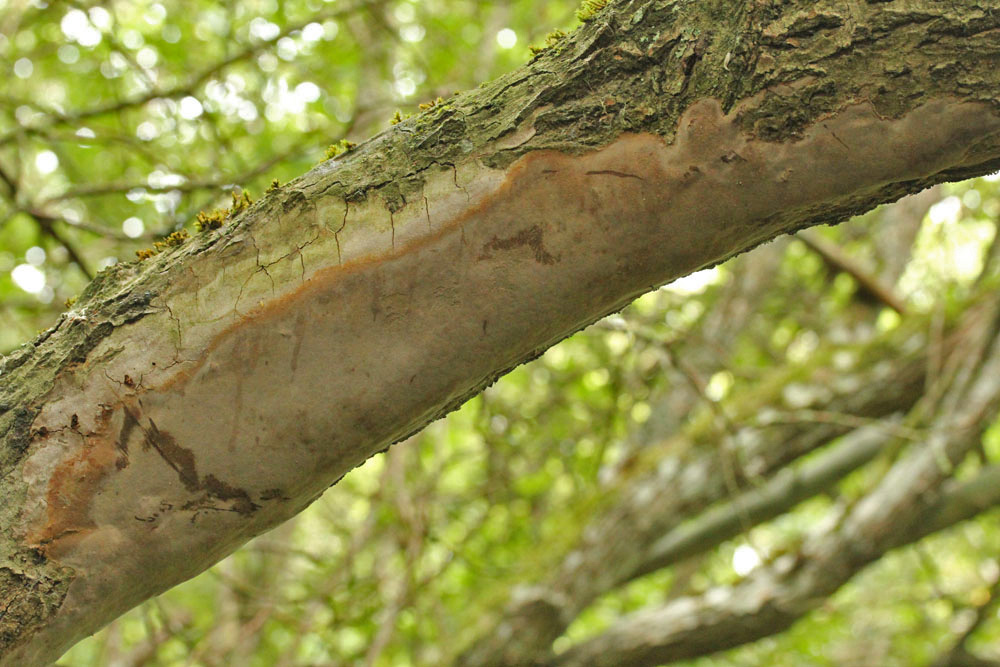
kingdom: Fungi
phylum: Basidiomycota
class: Agaricomycetes
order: Hymenochaetales
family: Hymenochaetaceae
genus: Fomitiporia
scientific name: Fomitiporia punctata
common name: pude-ildporesvamp
